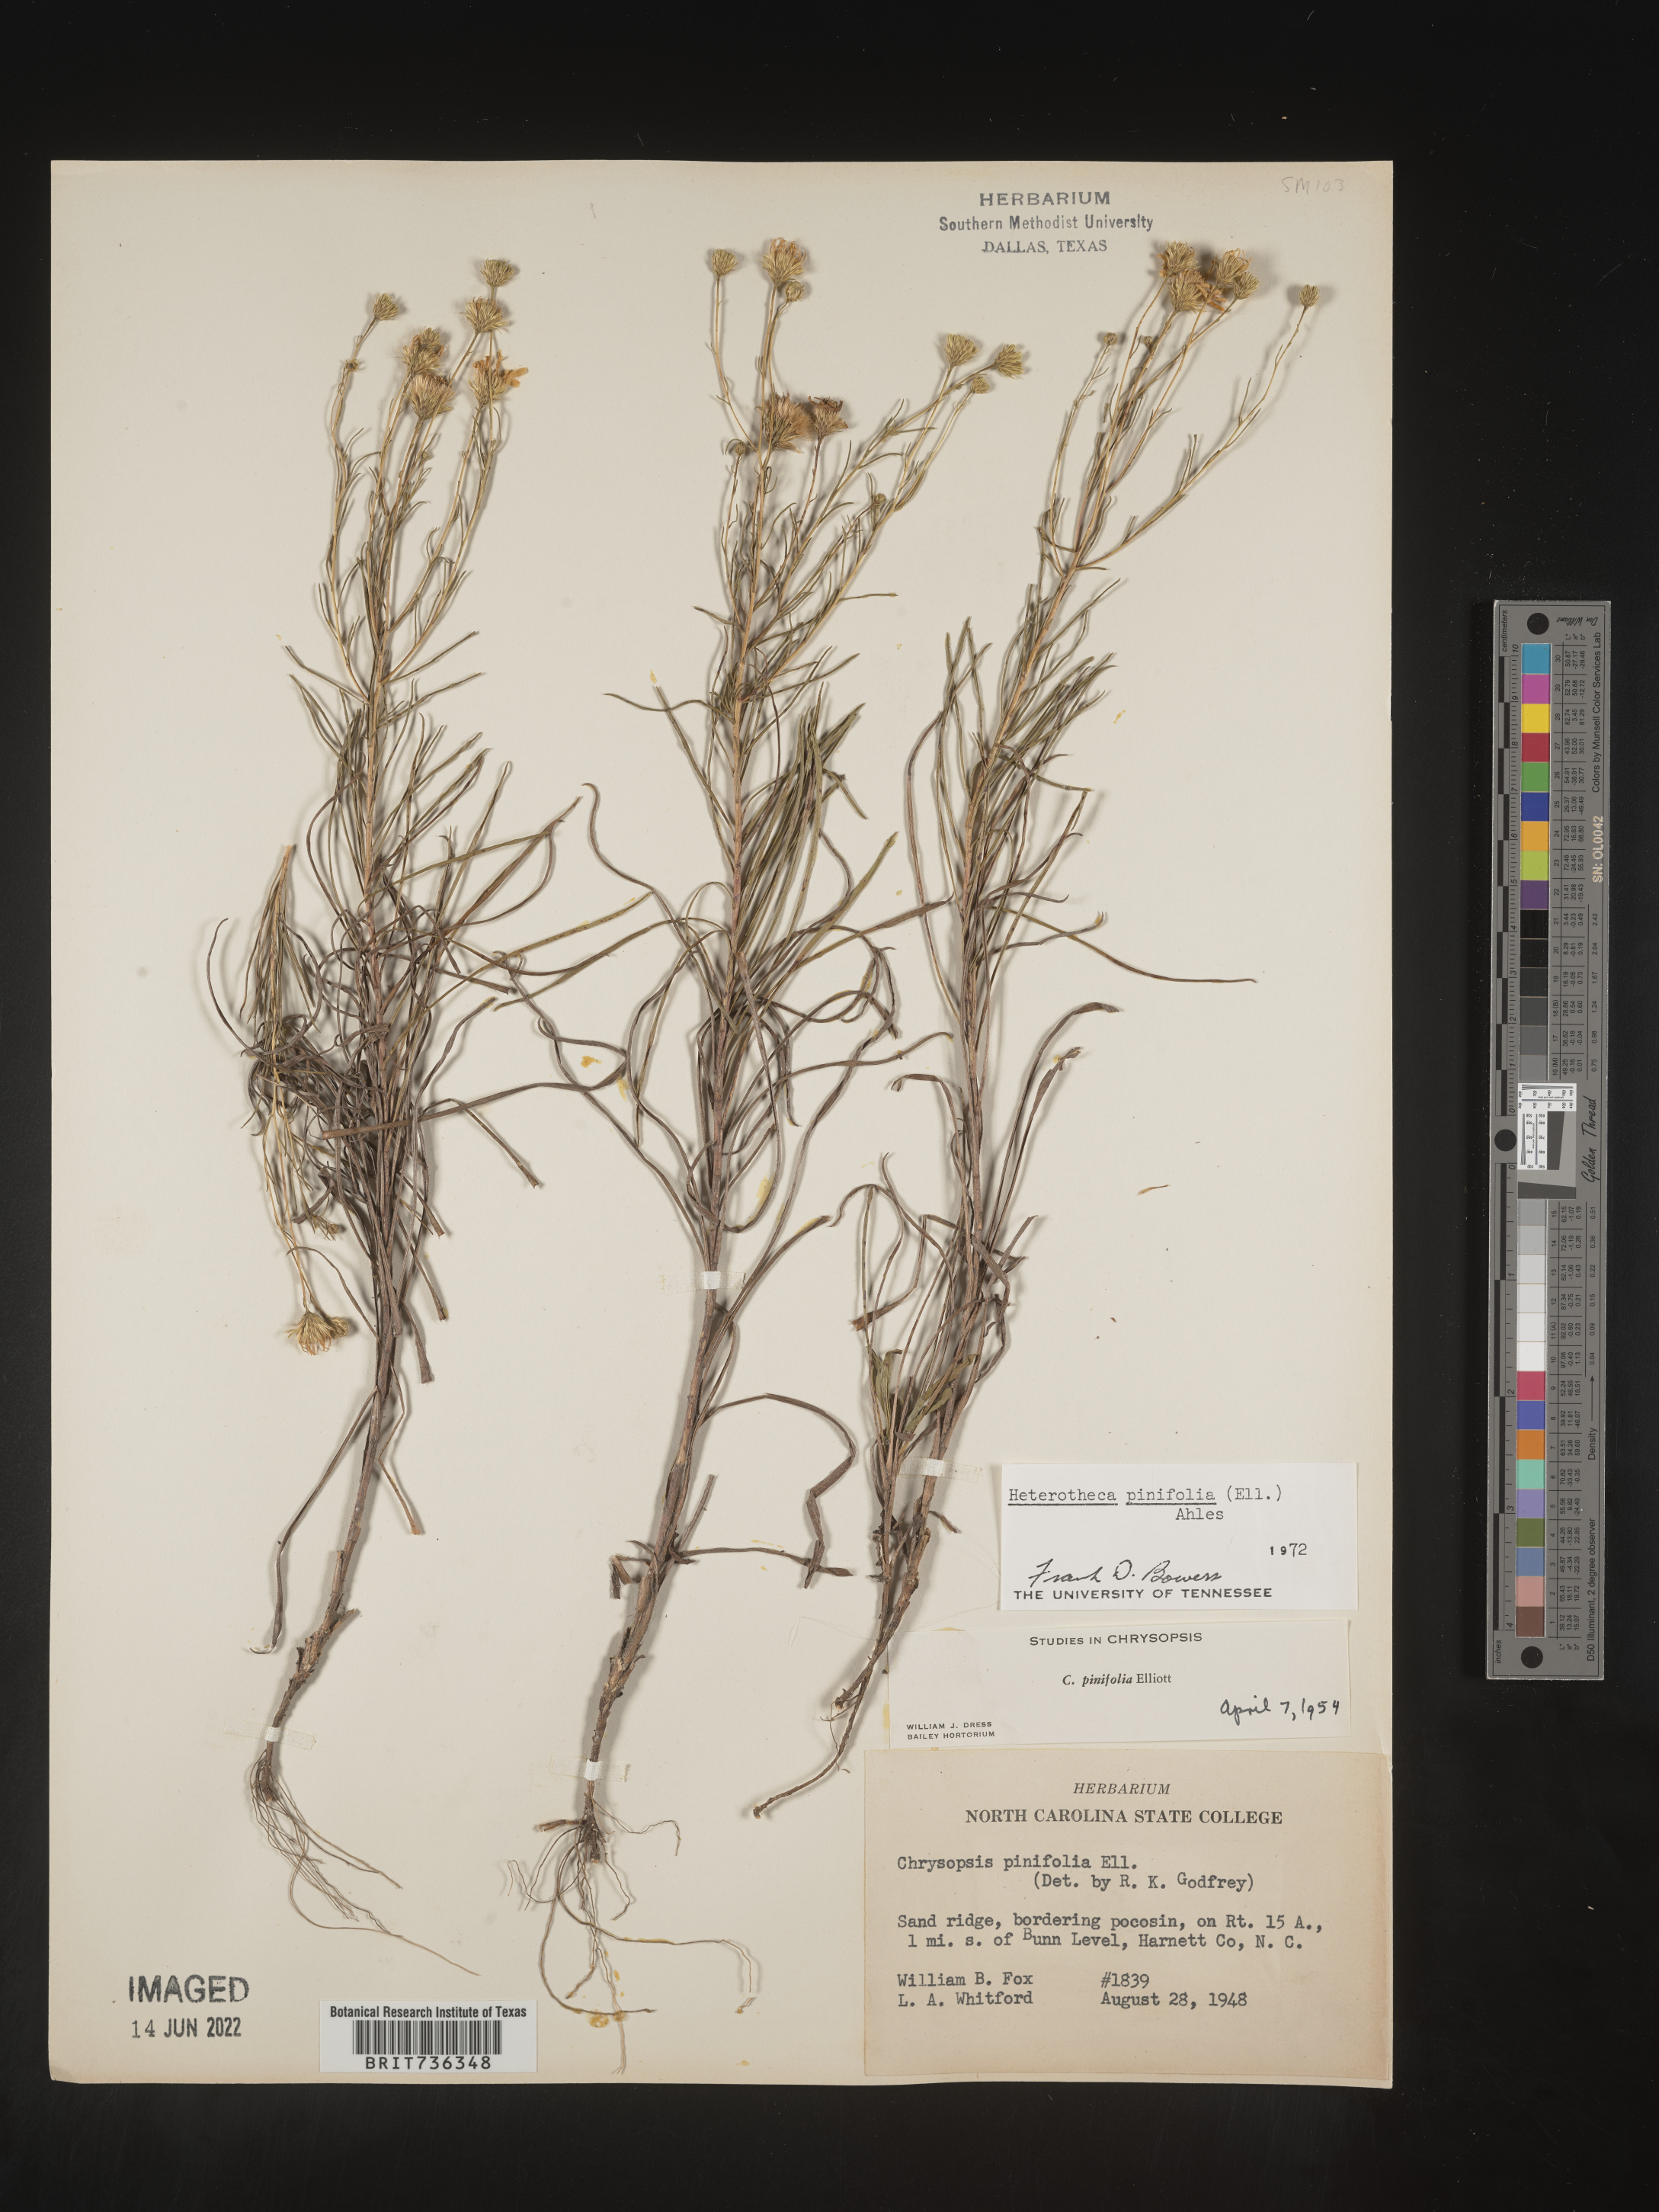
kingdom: Plantae
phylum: Tracheophyta
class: Magnoliopsida
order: Asterales
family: Asteraceae
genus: Pityopsis
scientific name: Pityopsis pinifolia
